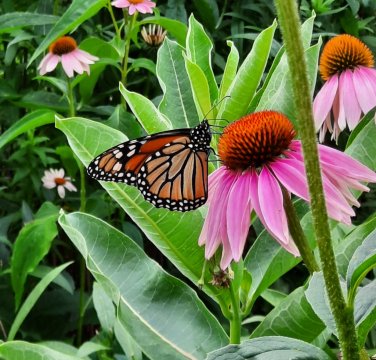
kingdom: Animalia
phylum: Arthropoda
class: Insecta
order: Lepidoptera
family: Nymphalidae
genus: Danaus
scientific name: Danaus plexippus
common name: Monarch
